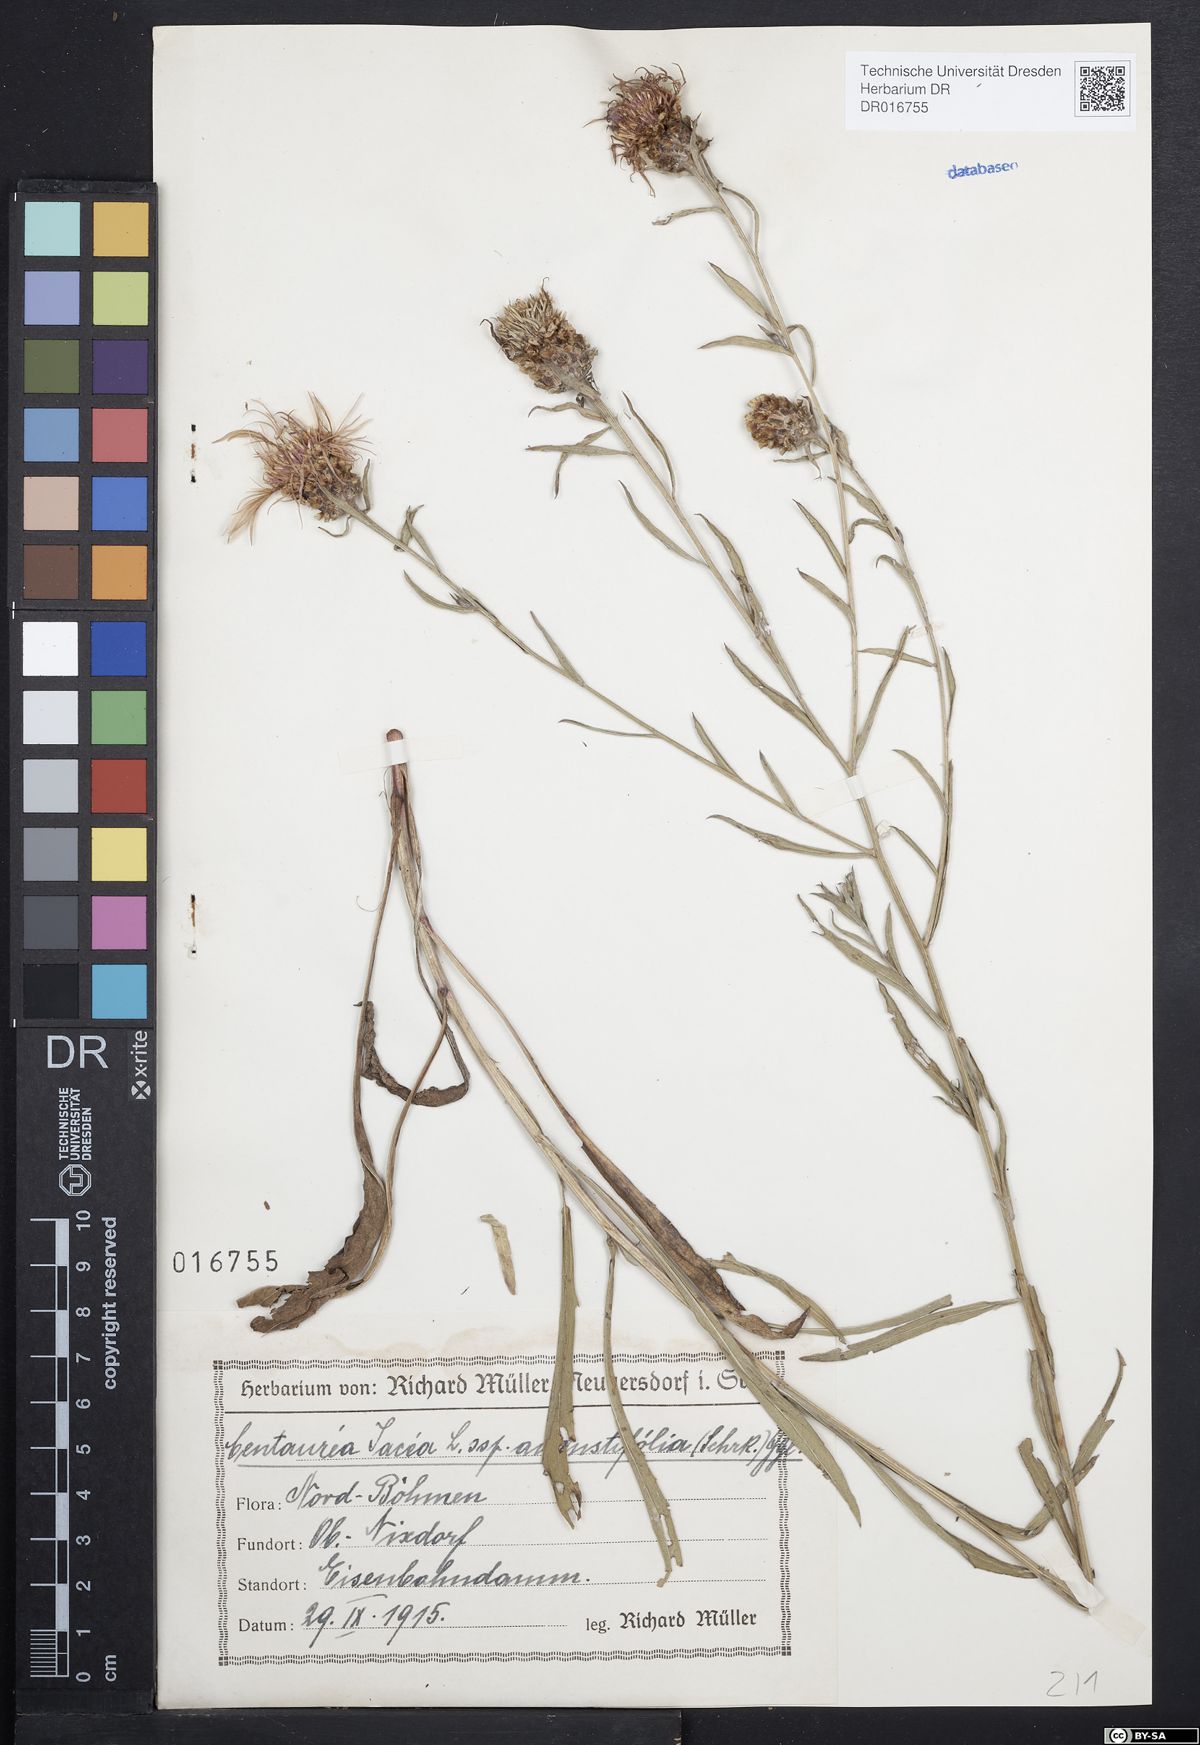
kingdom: Plantae
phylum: Tracheophyta
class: Magnoliopsida
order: Asterales
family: Asteraceae
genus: Centaurea
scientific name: Centaurea pannonica
